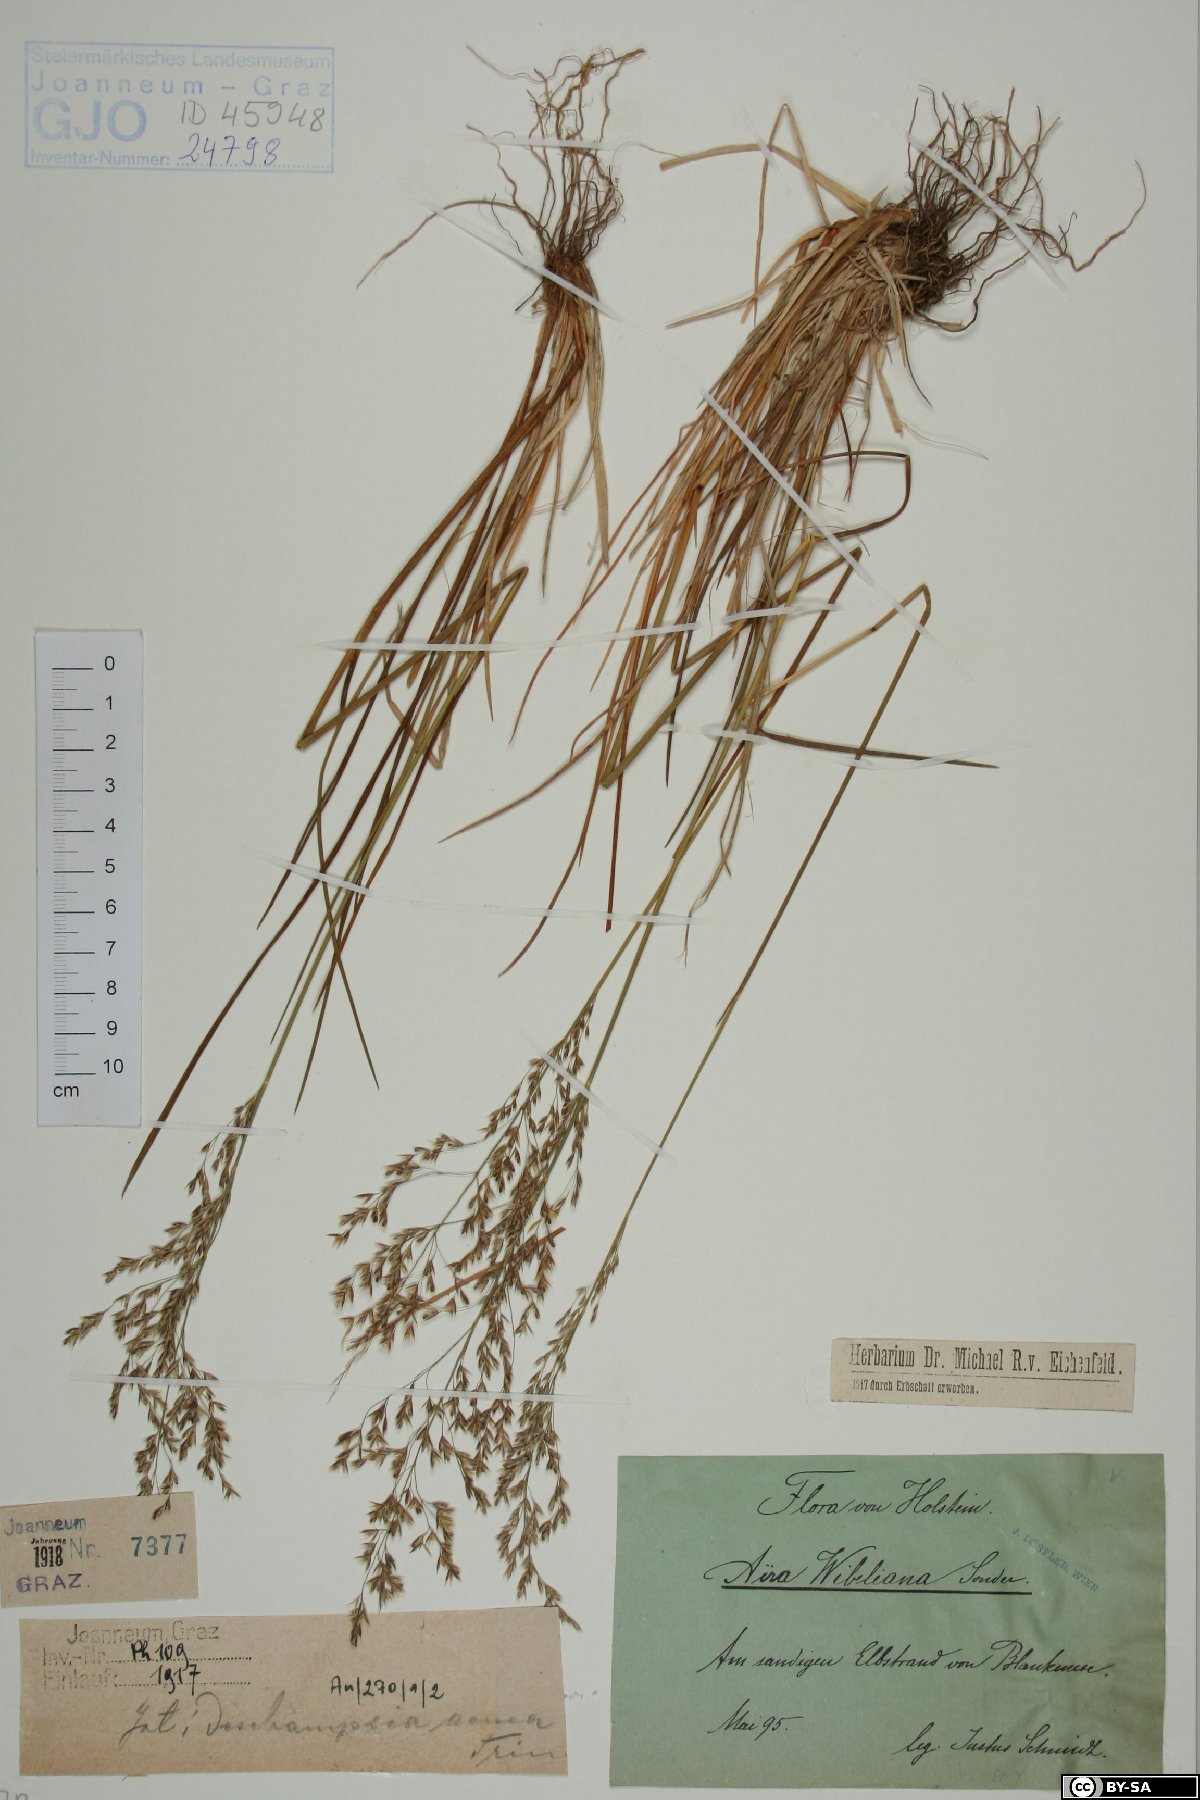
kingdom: Plantae
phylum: Tracheophyta
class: Liliopsida
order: Poales
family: Poaceae
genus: Deschampsia
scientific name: Deschampsia cespitosa
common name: Tufted hair-grass
